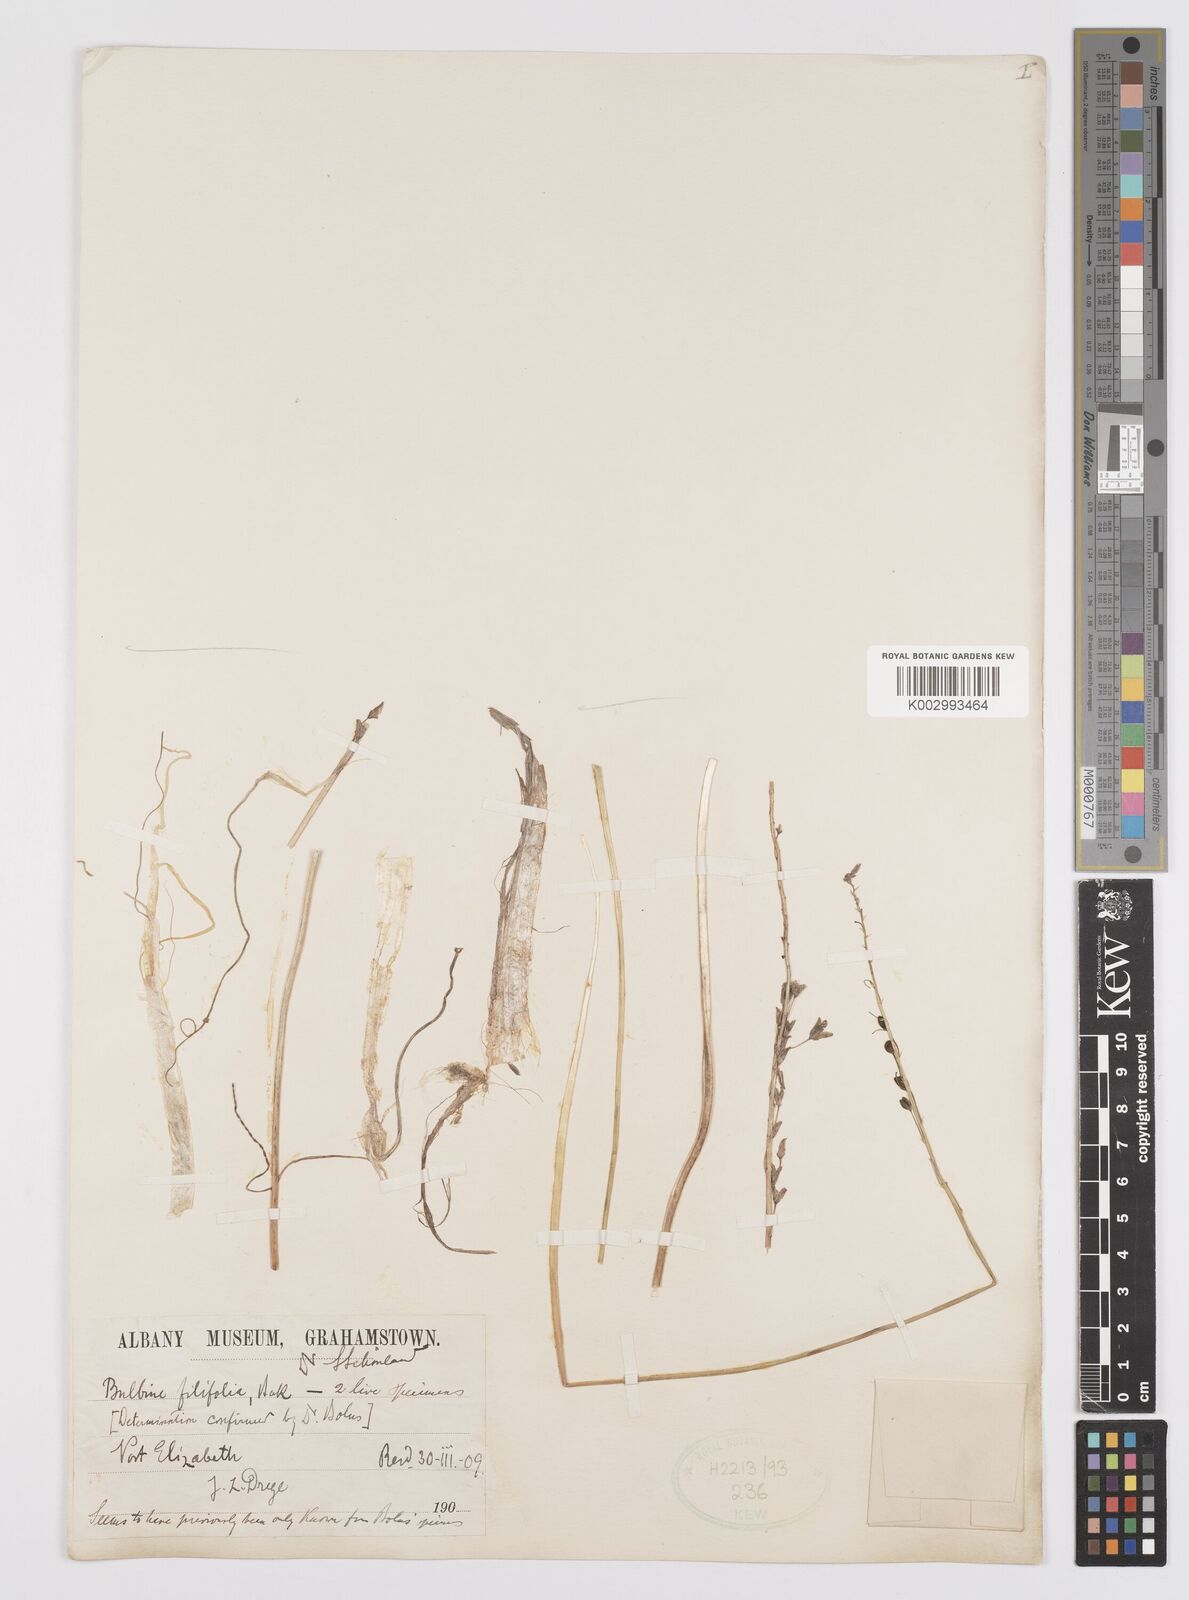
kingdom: Plantae
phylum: Tracheophyta
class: Liliopsida
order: Asparagales
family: Asphodelaceae
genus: Bulbine
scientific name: Bulbine favosa
